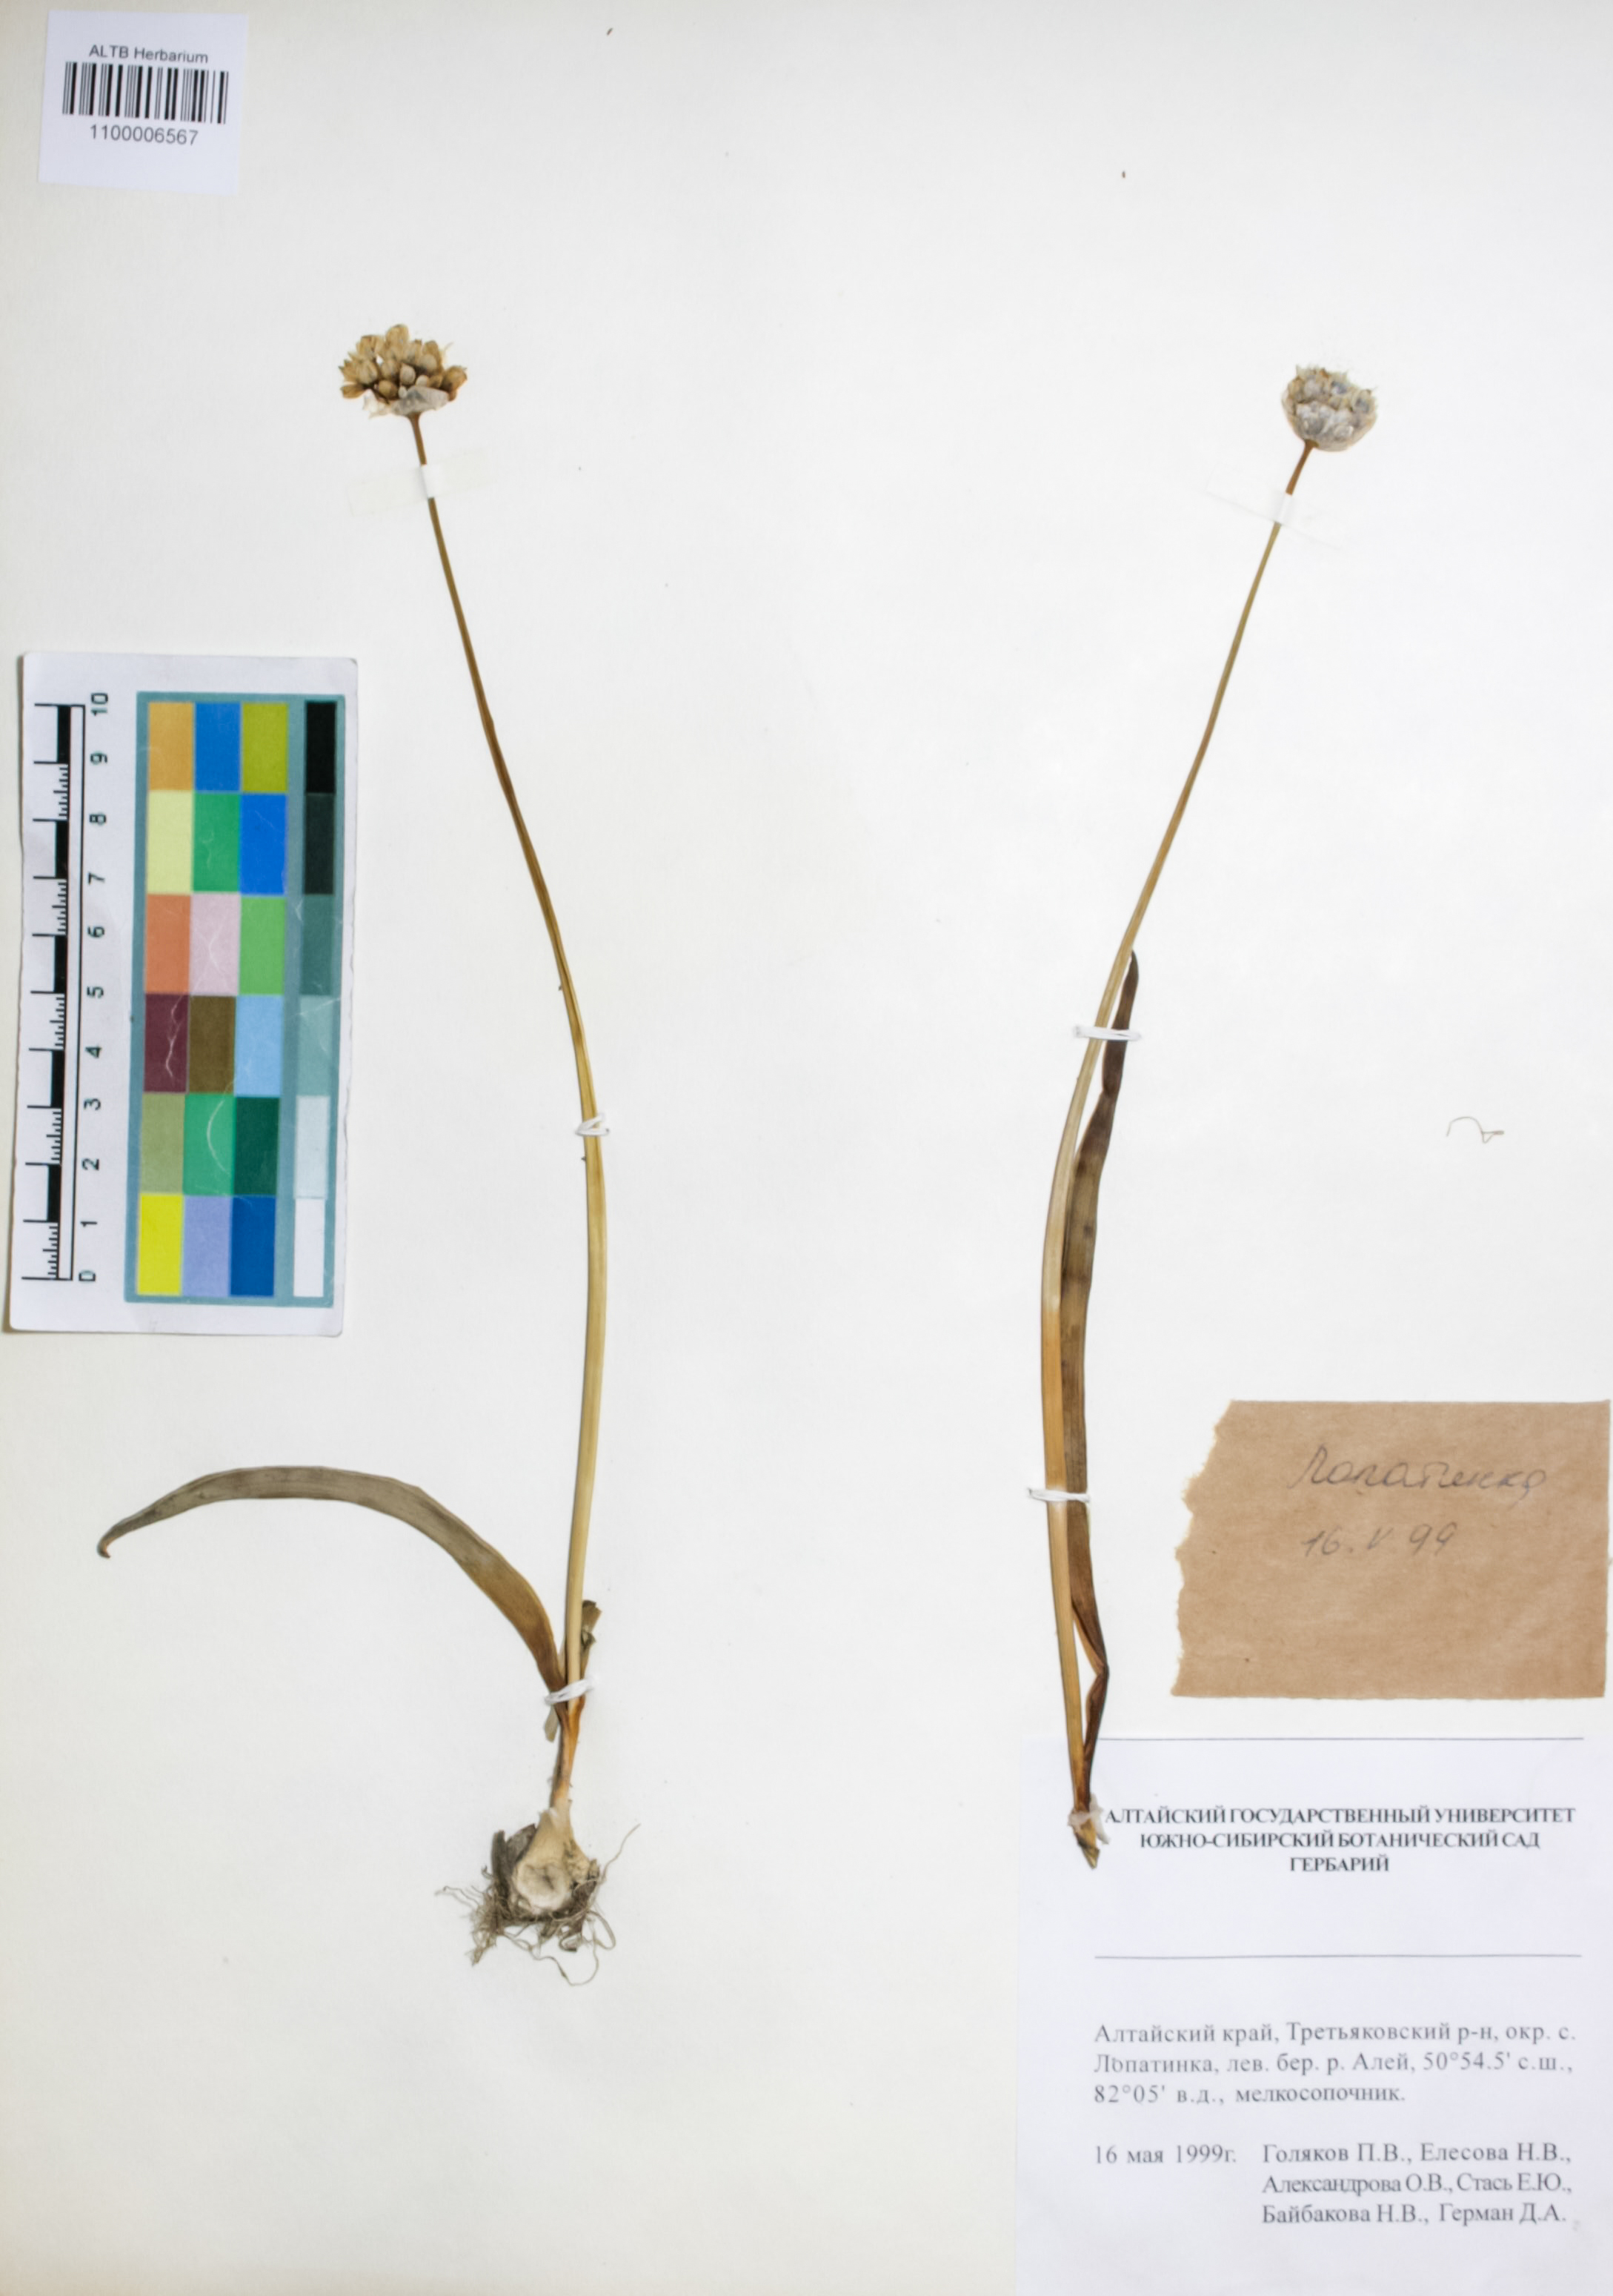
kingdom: Plantae
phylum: Tracheophyta
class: Liliopsida
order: Asparagales
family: Amaryllidaceae
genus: Allium
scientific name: Allium tulipifolium
